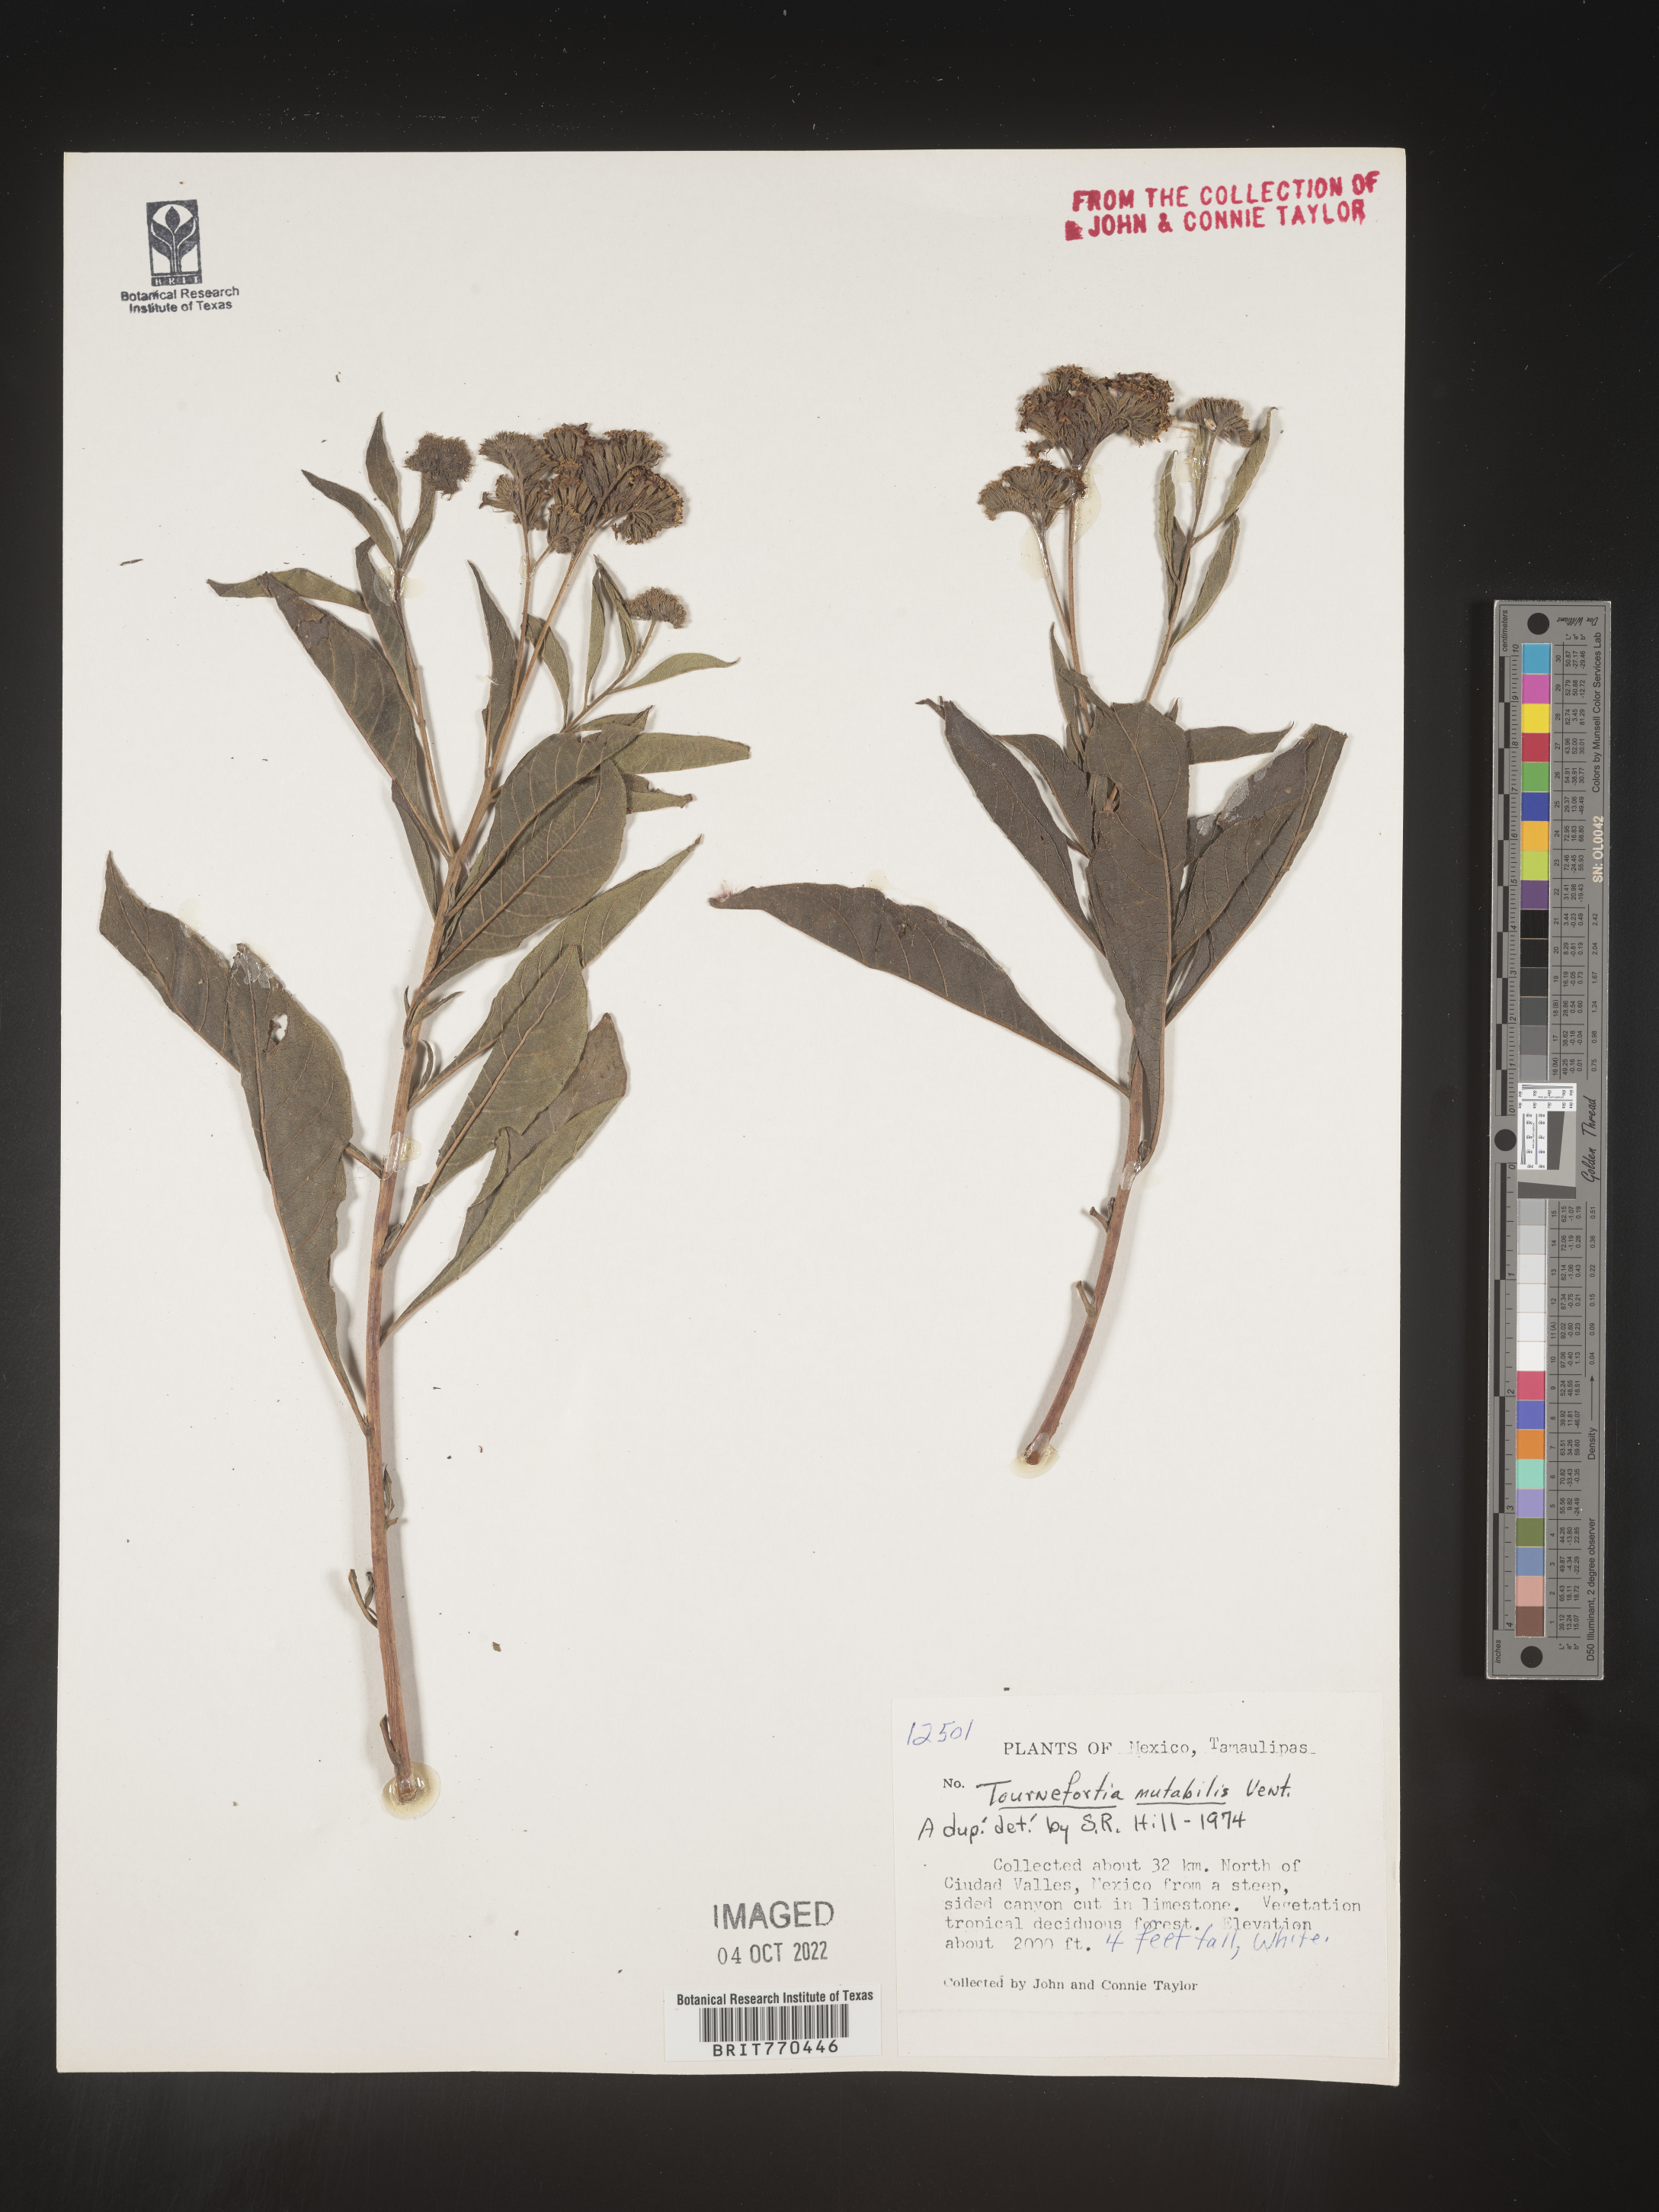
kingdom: Plantae
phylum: Tracheophyta
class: Magnoliopsida
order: Boraginales
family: Heliotropiaceae
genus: Tournefortia
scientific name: Tournefortia
